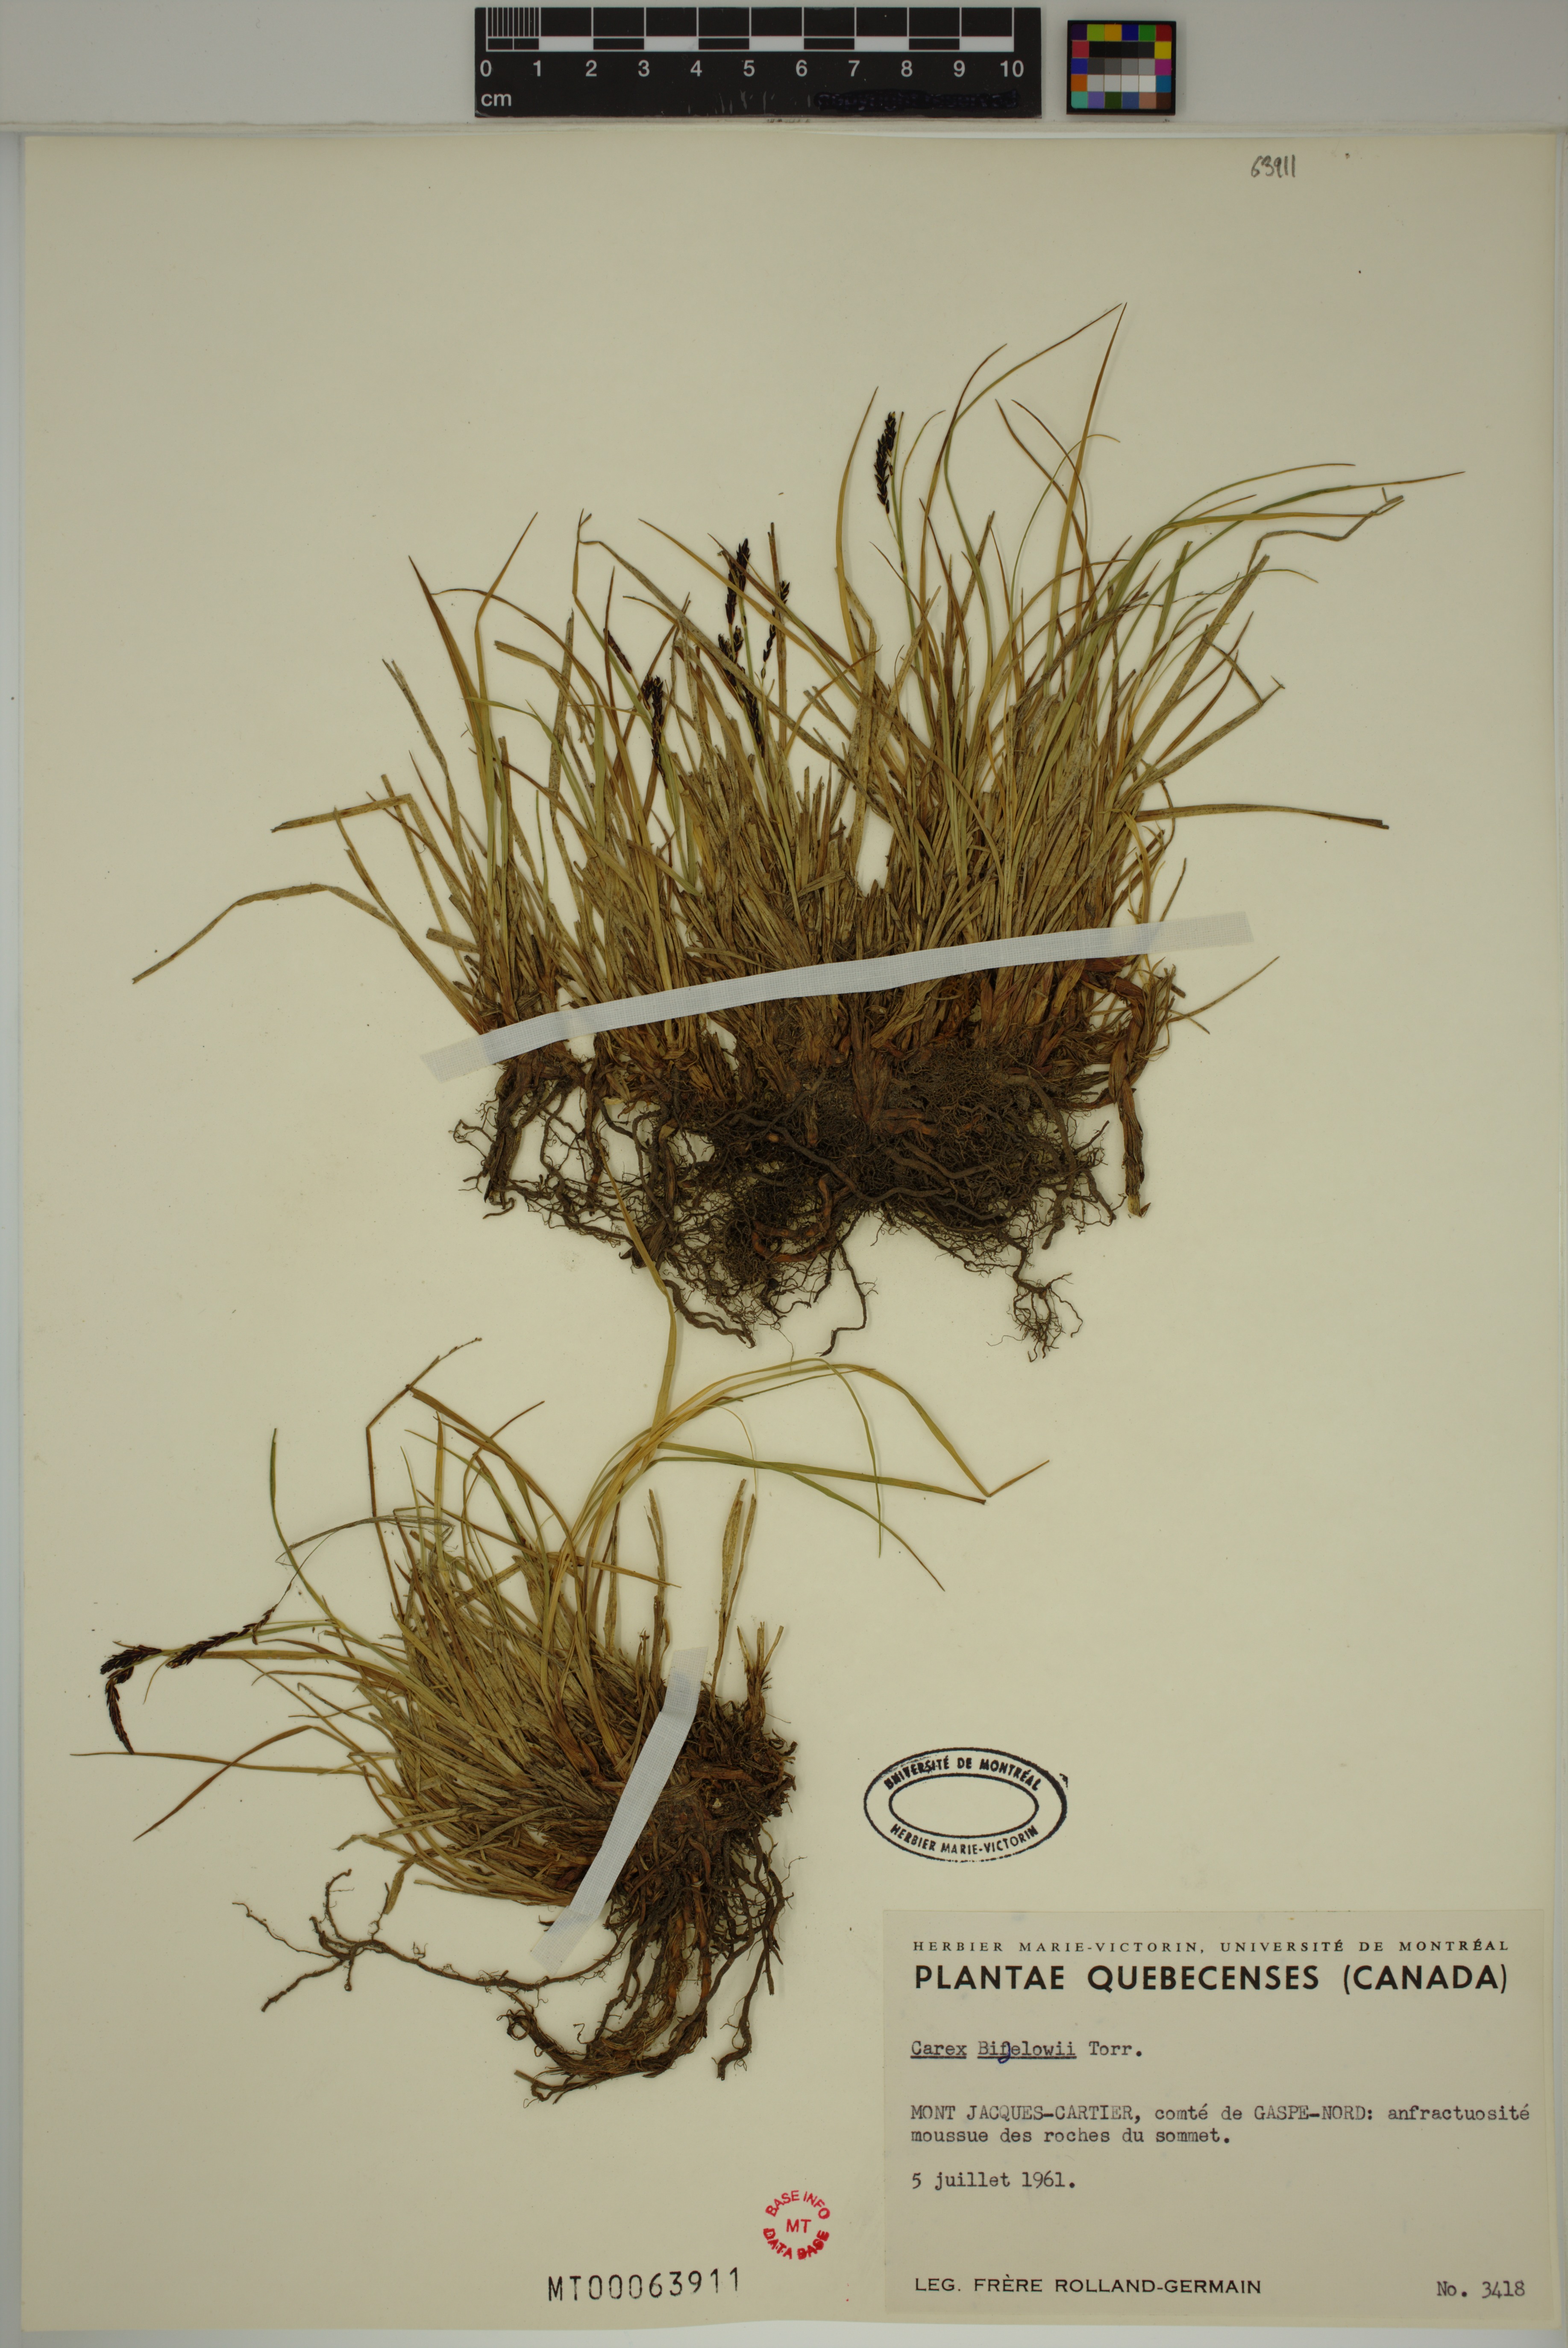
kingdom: Plantae
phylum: Tracheophyta
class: Liliopsida
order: Poales
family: Cyperaceae
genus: Carex
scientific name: Carex bigelowii
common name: Stiff sedge
